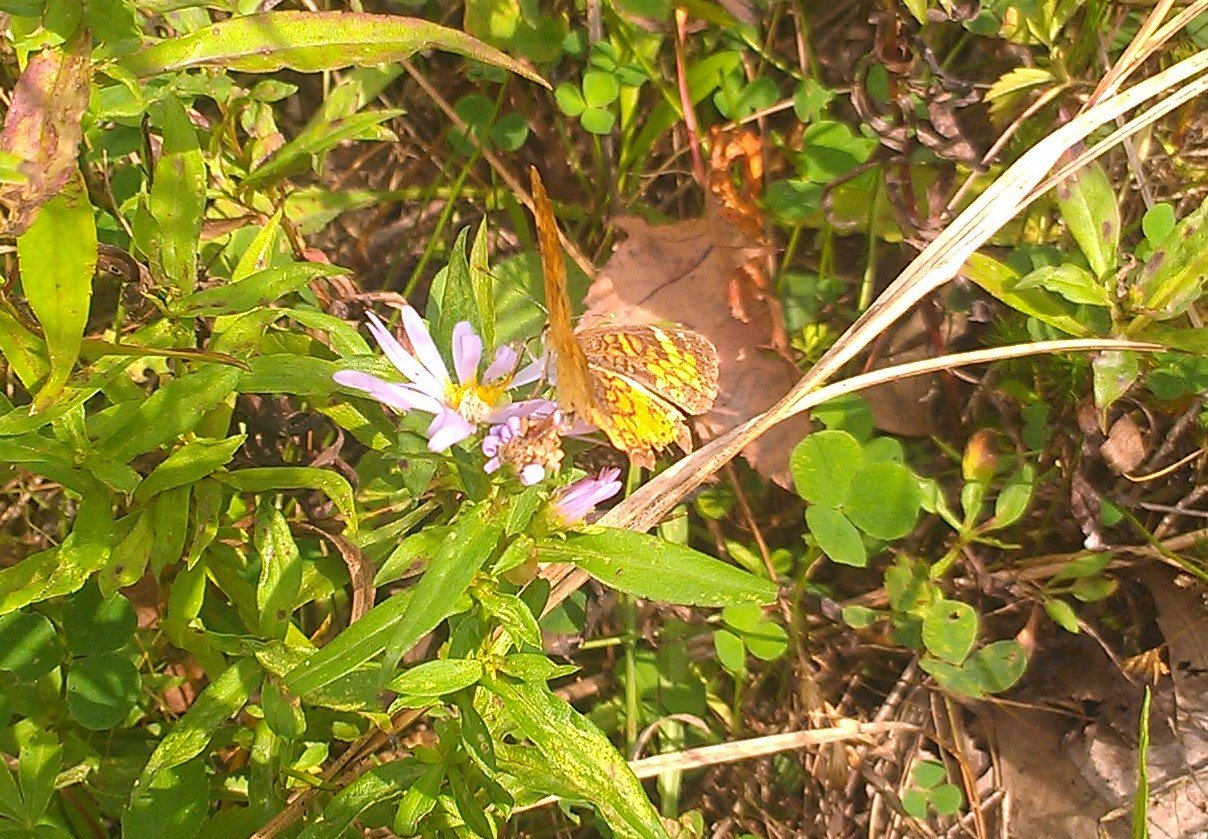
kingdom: Animalia
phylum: Arthropoda
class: Insecta
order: Lepidoptera
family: Nymphalidae
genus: Phyciodes
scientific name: Phyciodes tharos
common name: Northern Crescent
